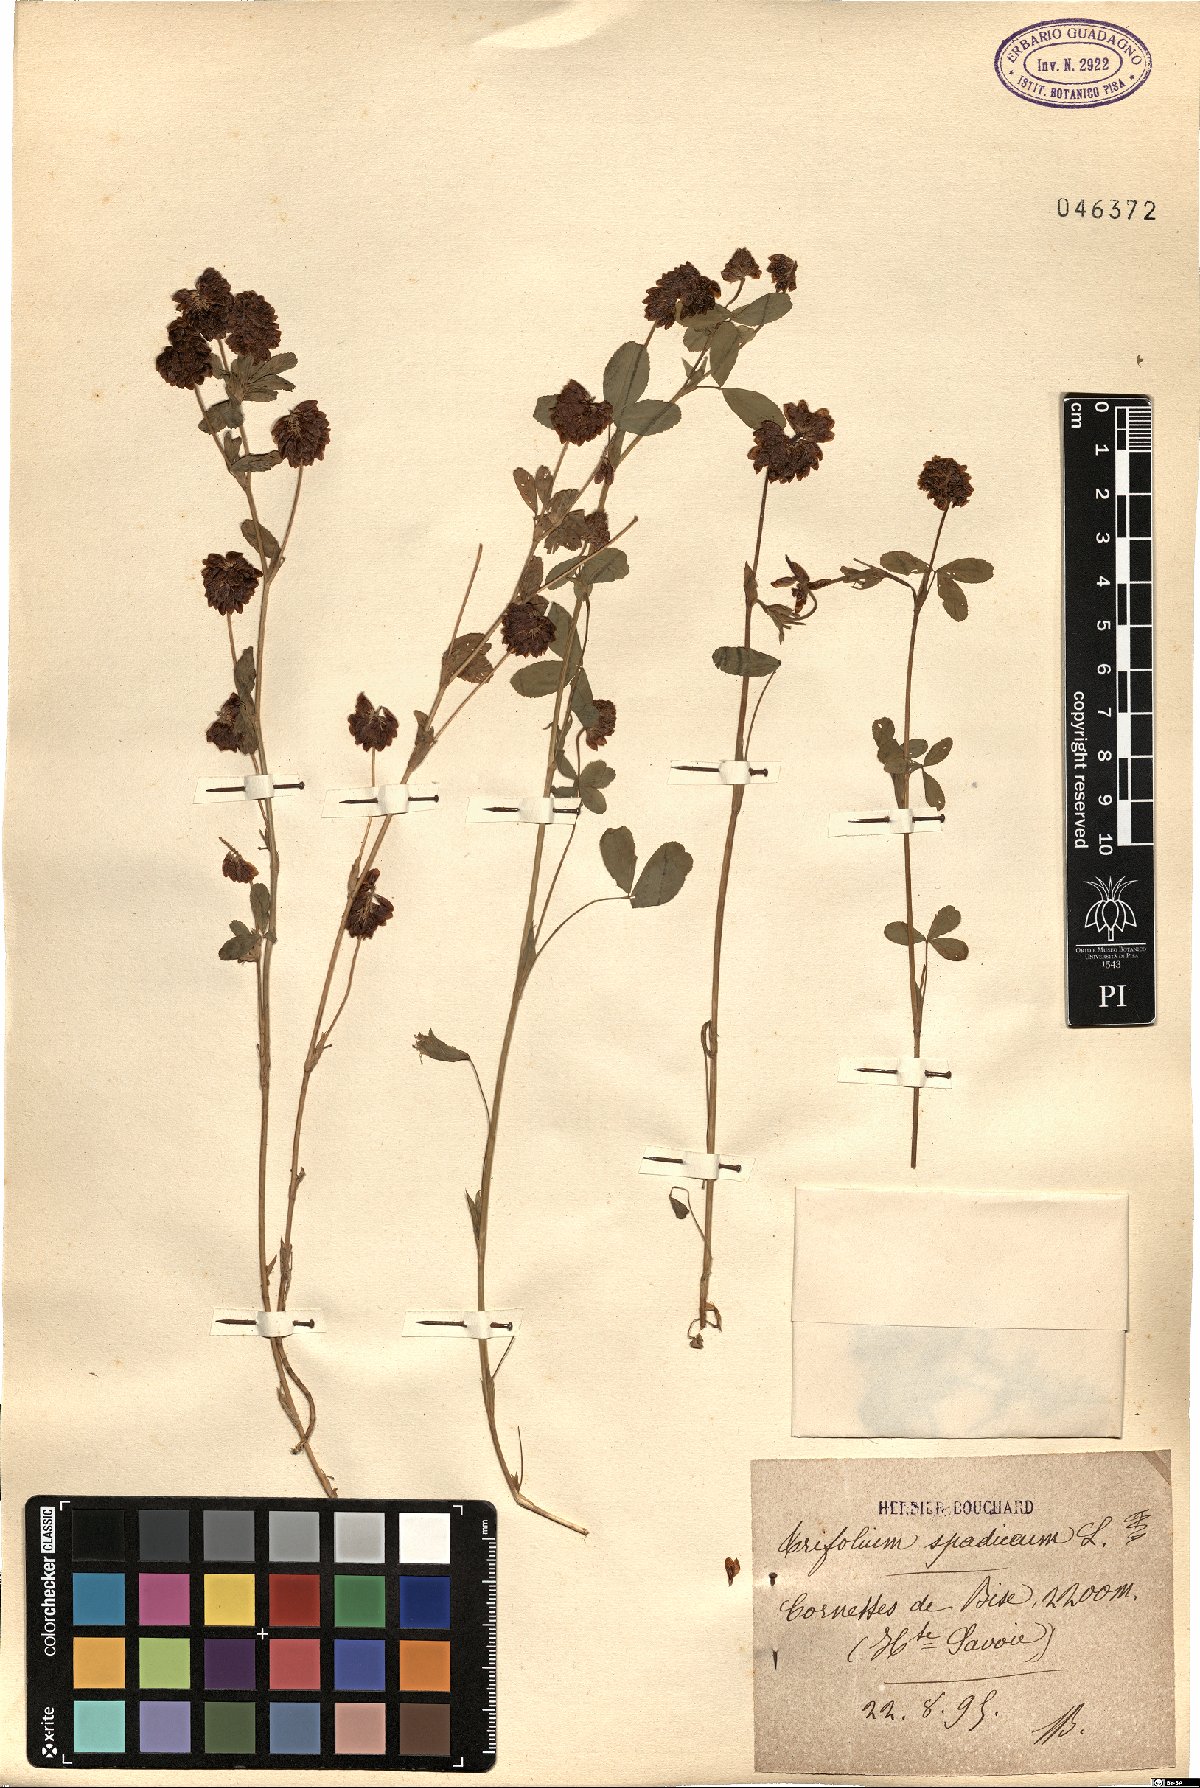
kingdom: Plantae
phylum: Tracheophyta
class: Magnoliopsida
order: Fabales
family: Fabaceae
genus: Trifolium
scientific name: Trifolium spadiceum
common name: Brown moor clover
